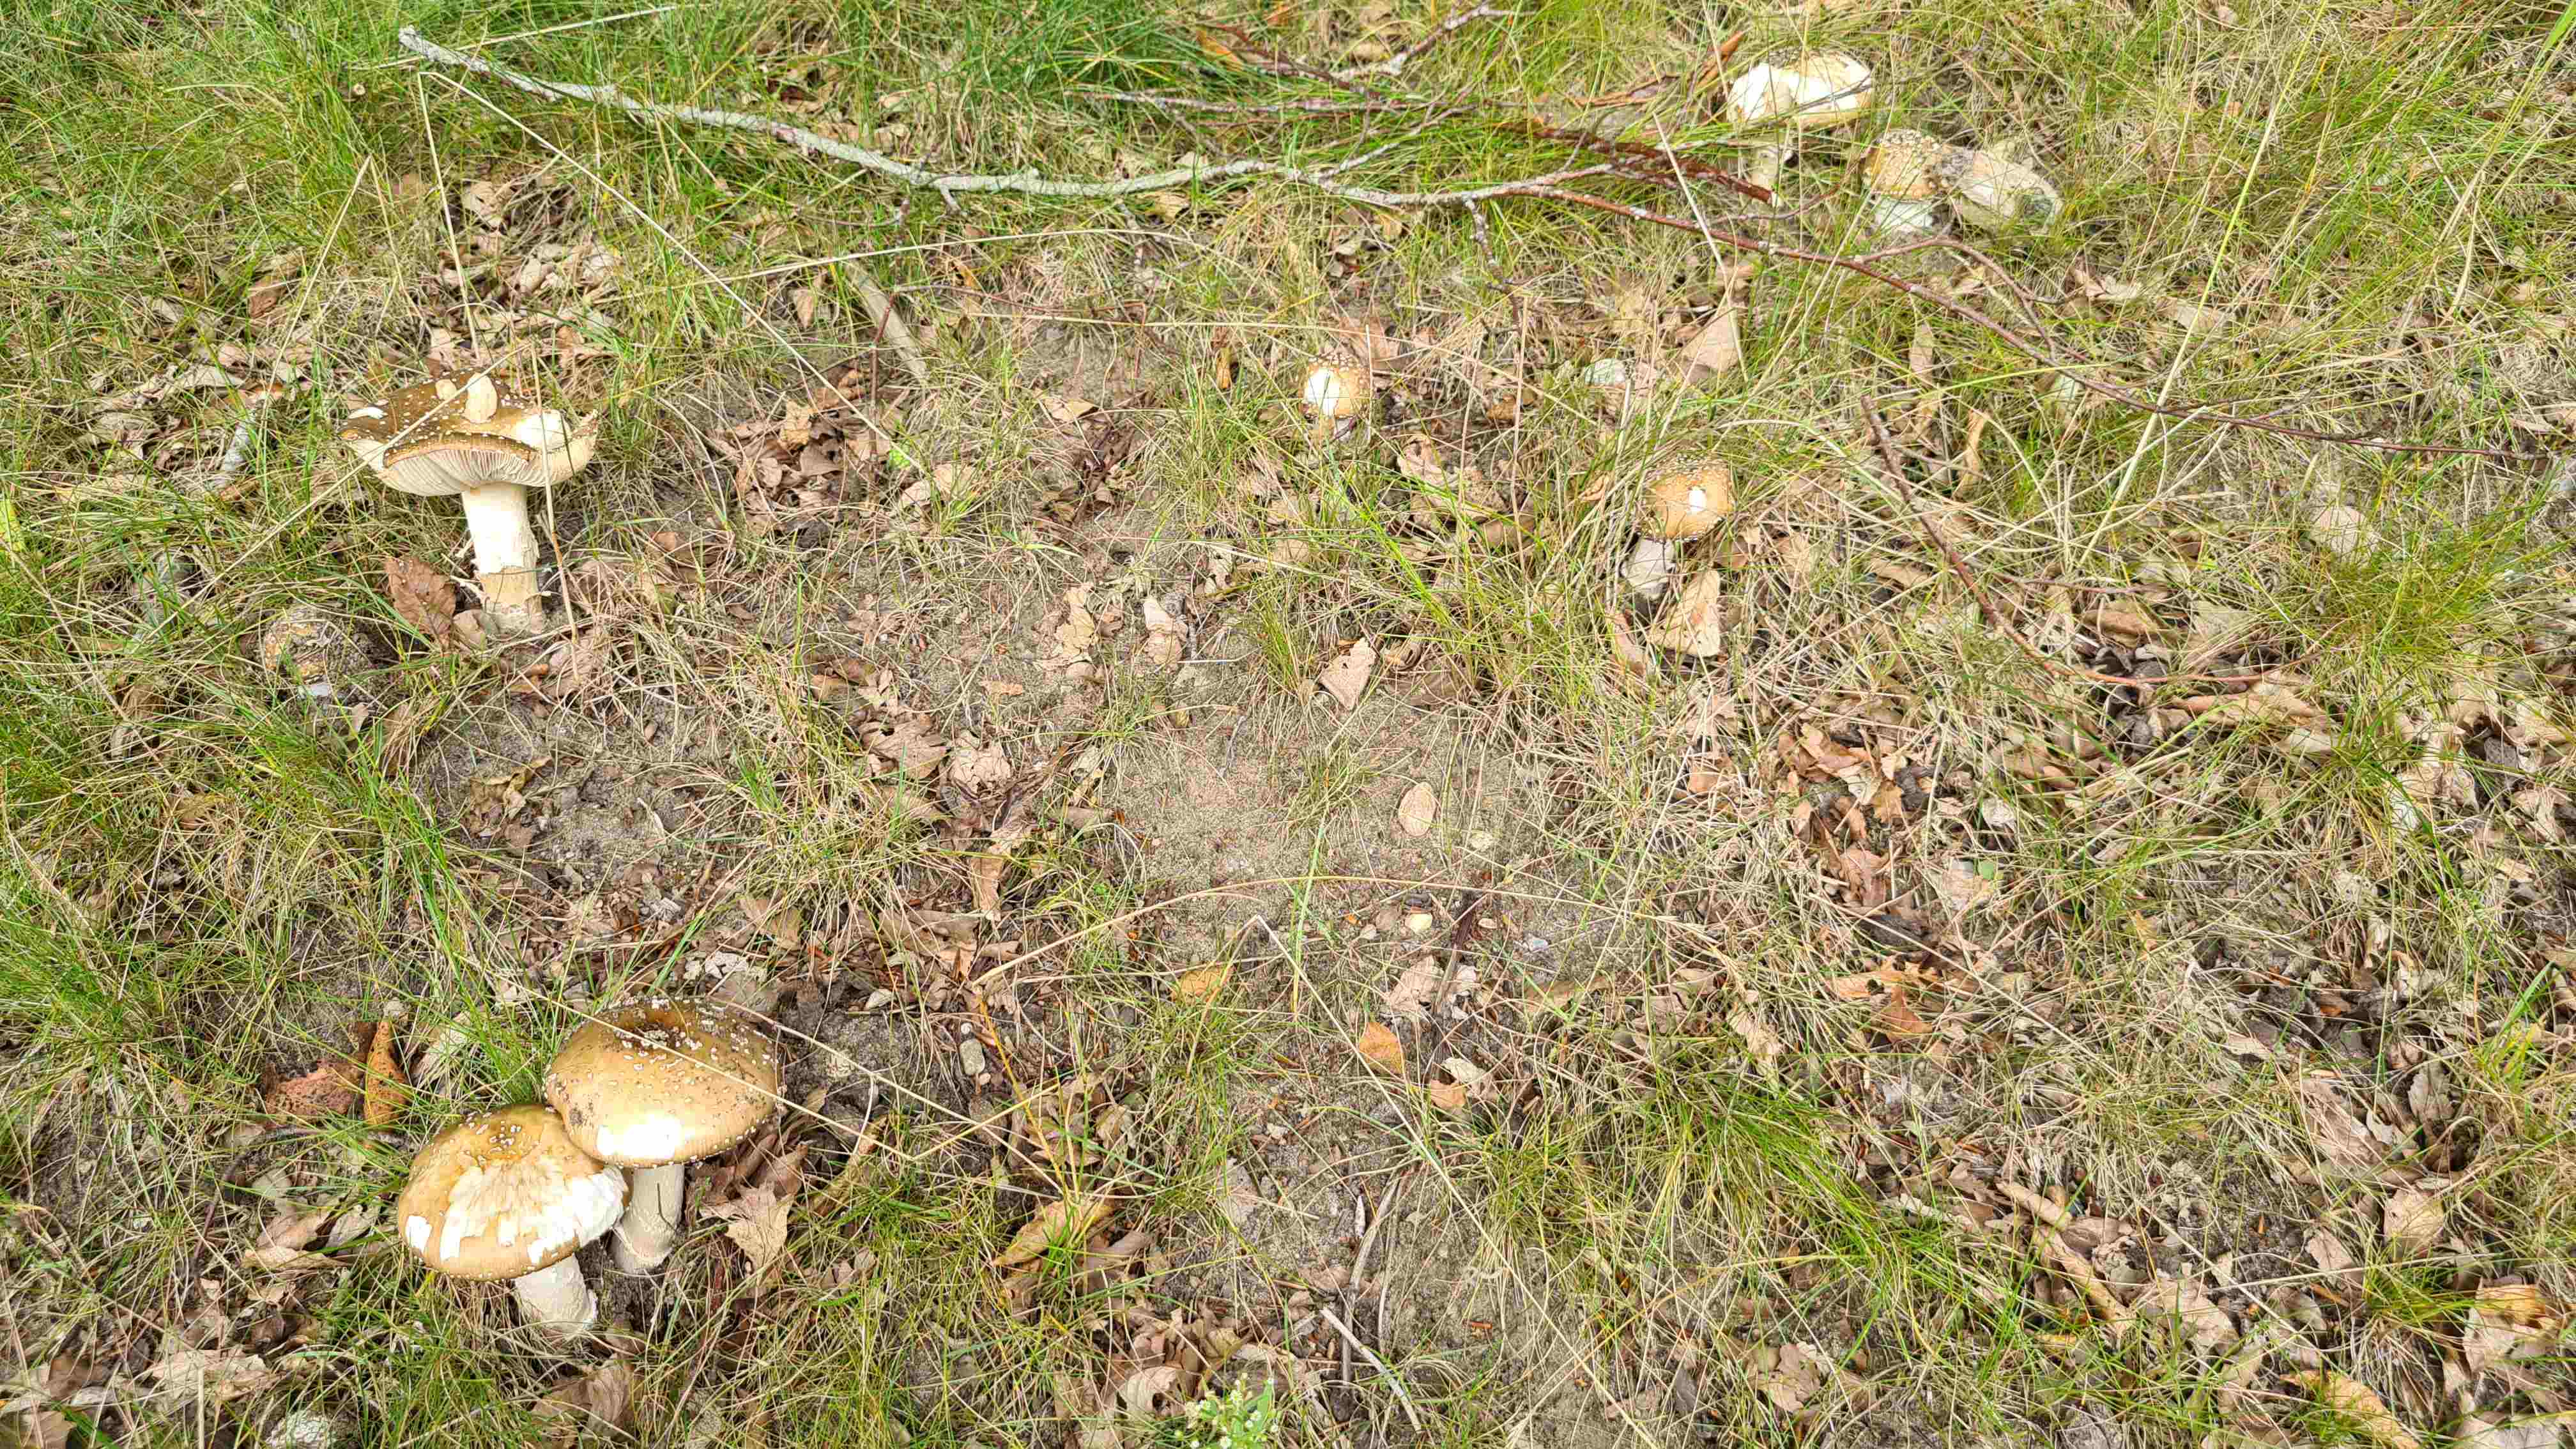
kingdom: Fungi
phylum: Basidiomycota
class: Agaricomycetes
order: Agaricales
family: Amanitaceae
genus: Amanita
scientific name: Amanita pantherina
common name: panter-fluesvamp
